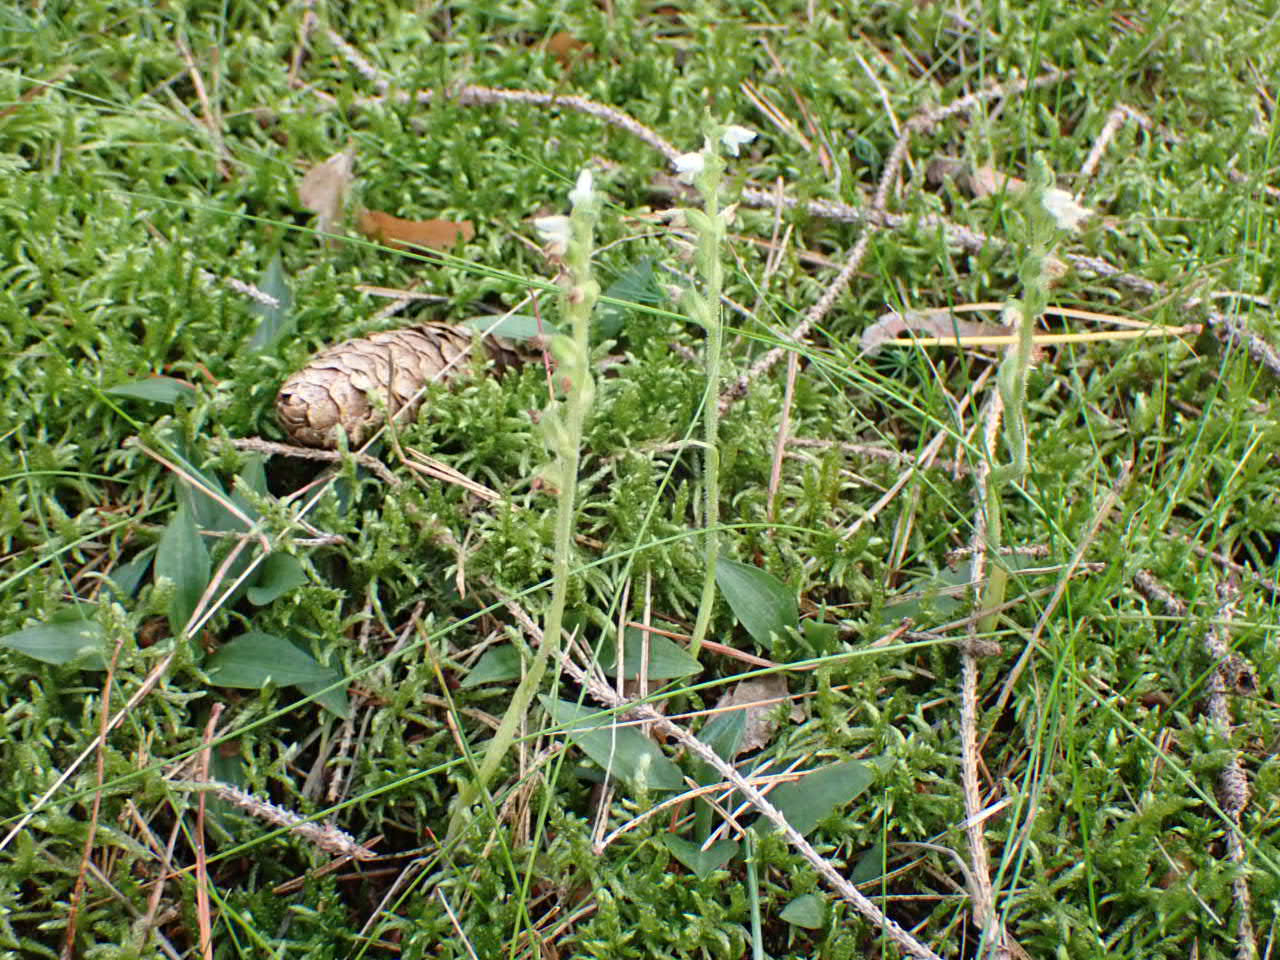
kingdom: Plantae
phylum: Tracheophyta
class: Liliopsida
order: Asparagales
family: Orchidaceae
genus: Goodyera
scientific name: Goodyera repens
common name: Knærod
